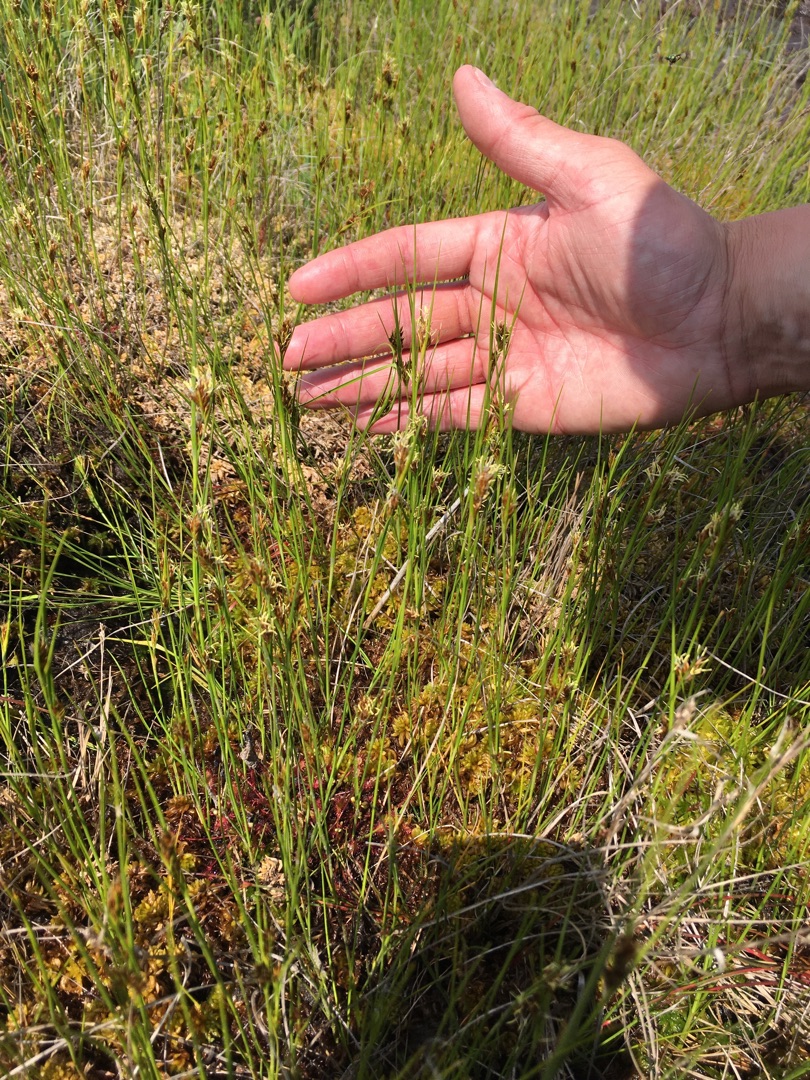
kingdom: Plantae
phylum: Tracheophyta
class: Liliopsida
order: Poales
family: Cyperaceae
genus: Rhynchospora
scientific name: Rhynchospora fusca
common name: Brun næbfrø
